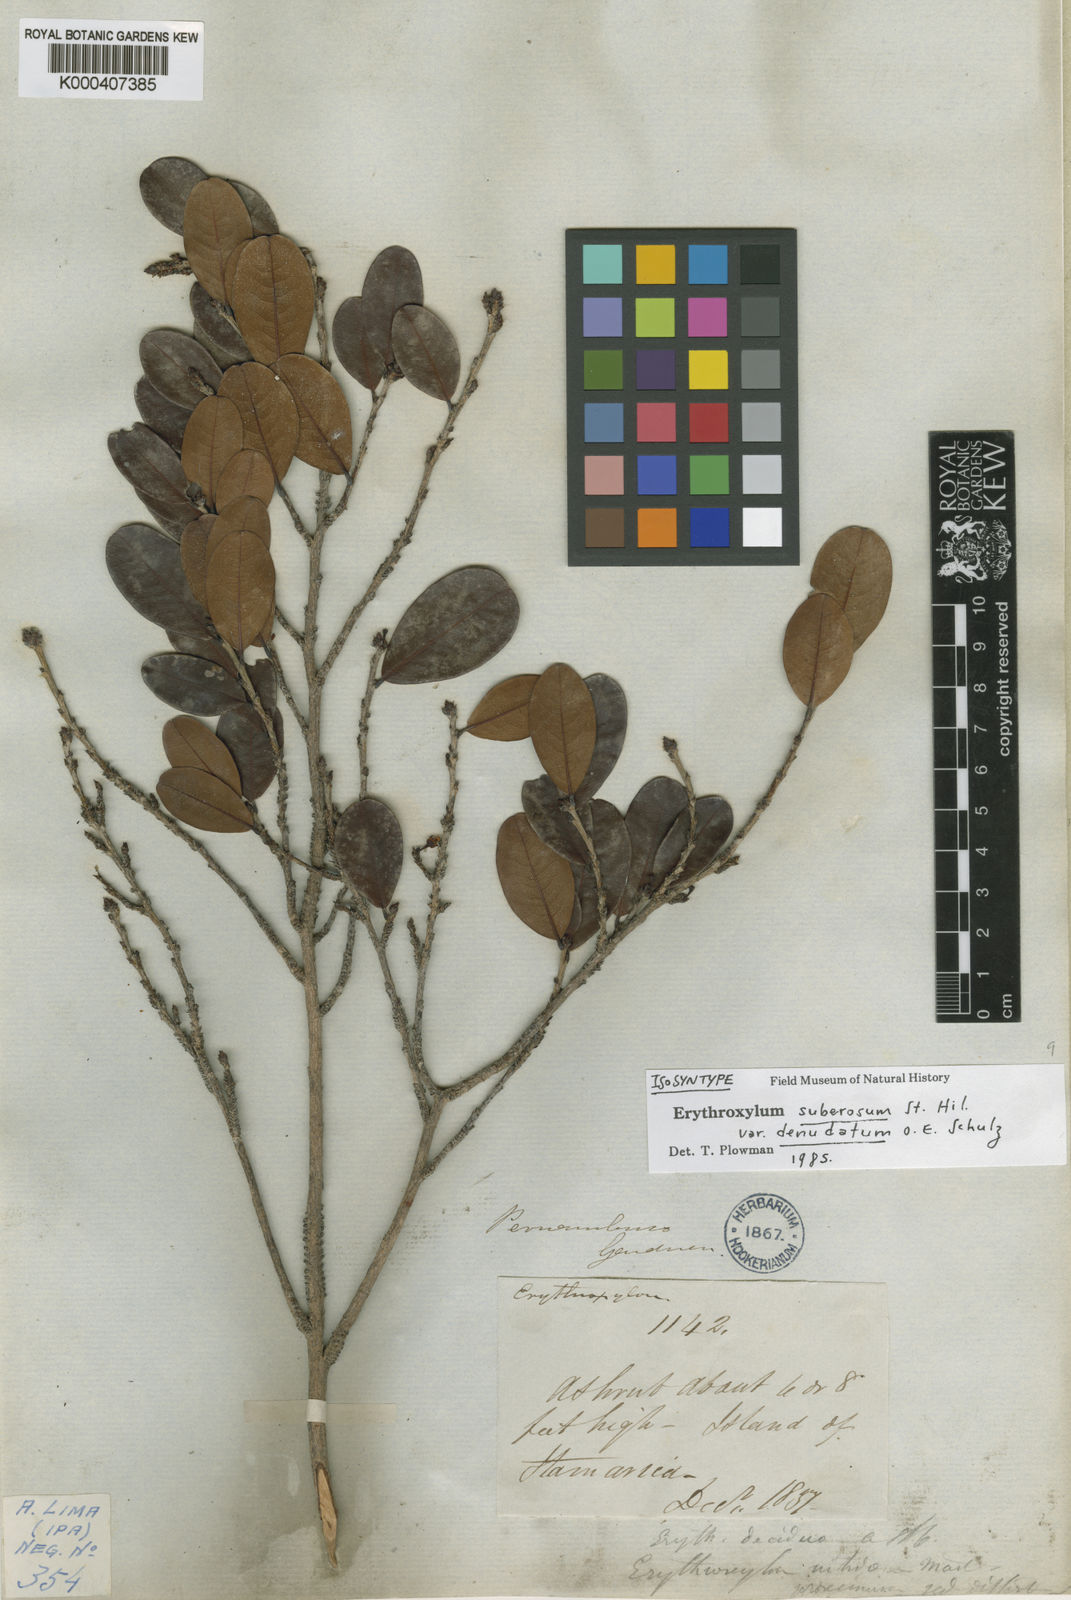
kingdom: Plantae
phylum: Tracheophyta
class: Magnoliopsida
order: Malpighiales
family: Erythroxylaceae
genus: Erythroxylum
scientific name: Erythroxylum rimosum
